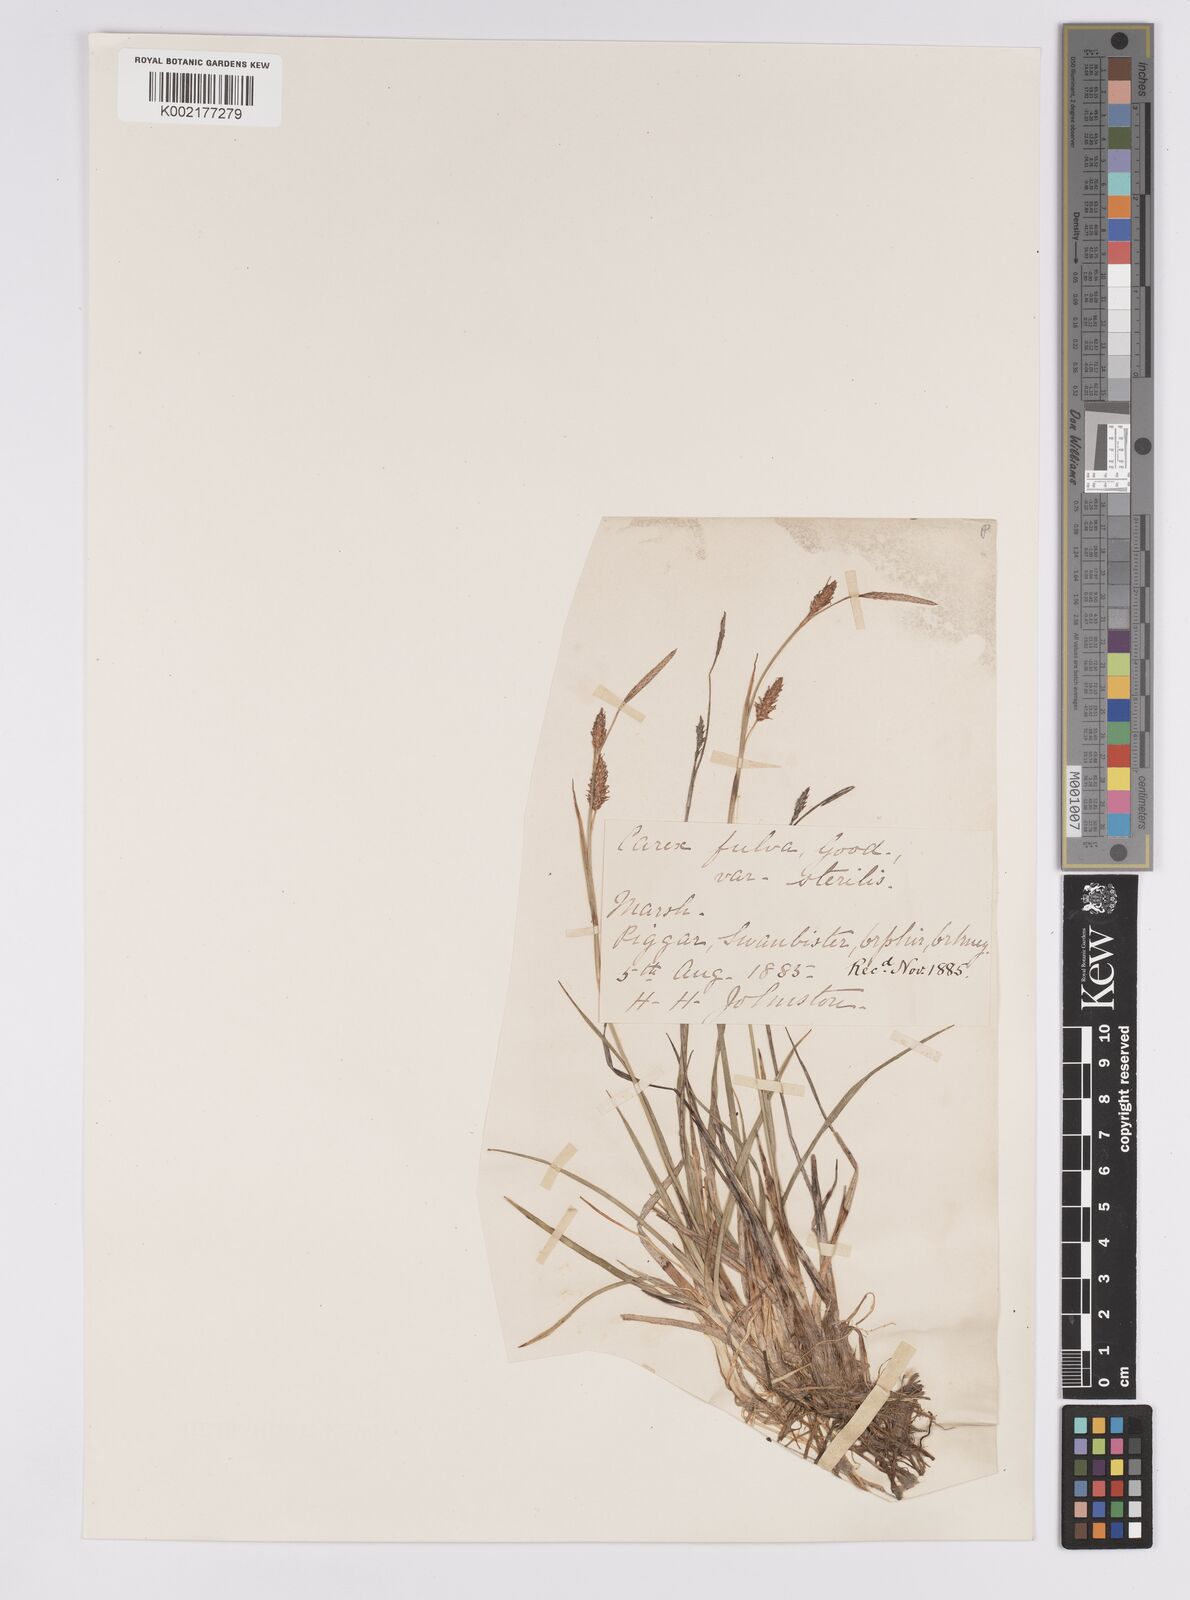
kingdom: Plantae
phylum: Tracheophyta
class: Liliopsida
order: Poales
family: Cyperaceae
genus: Carex
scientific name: Carex hostiana
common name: Tawny sedge
